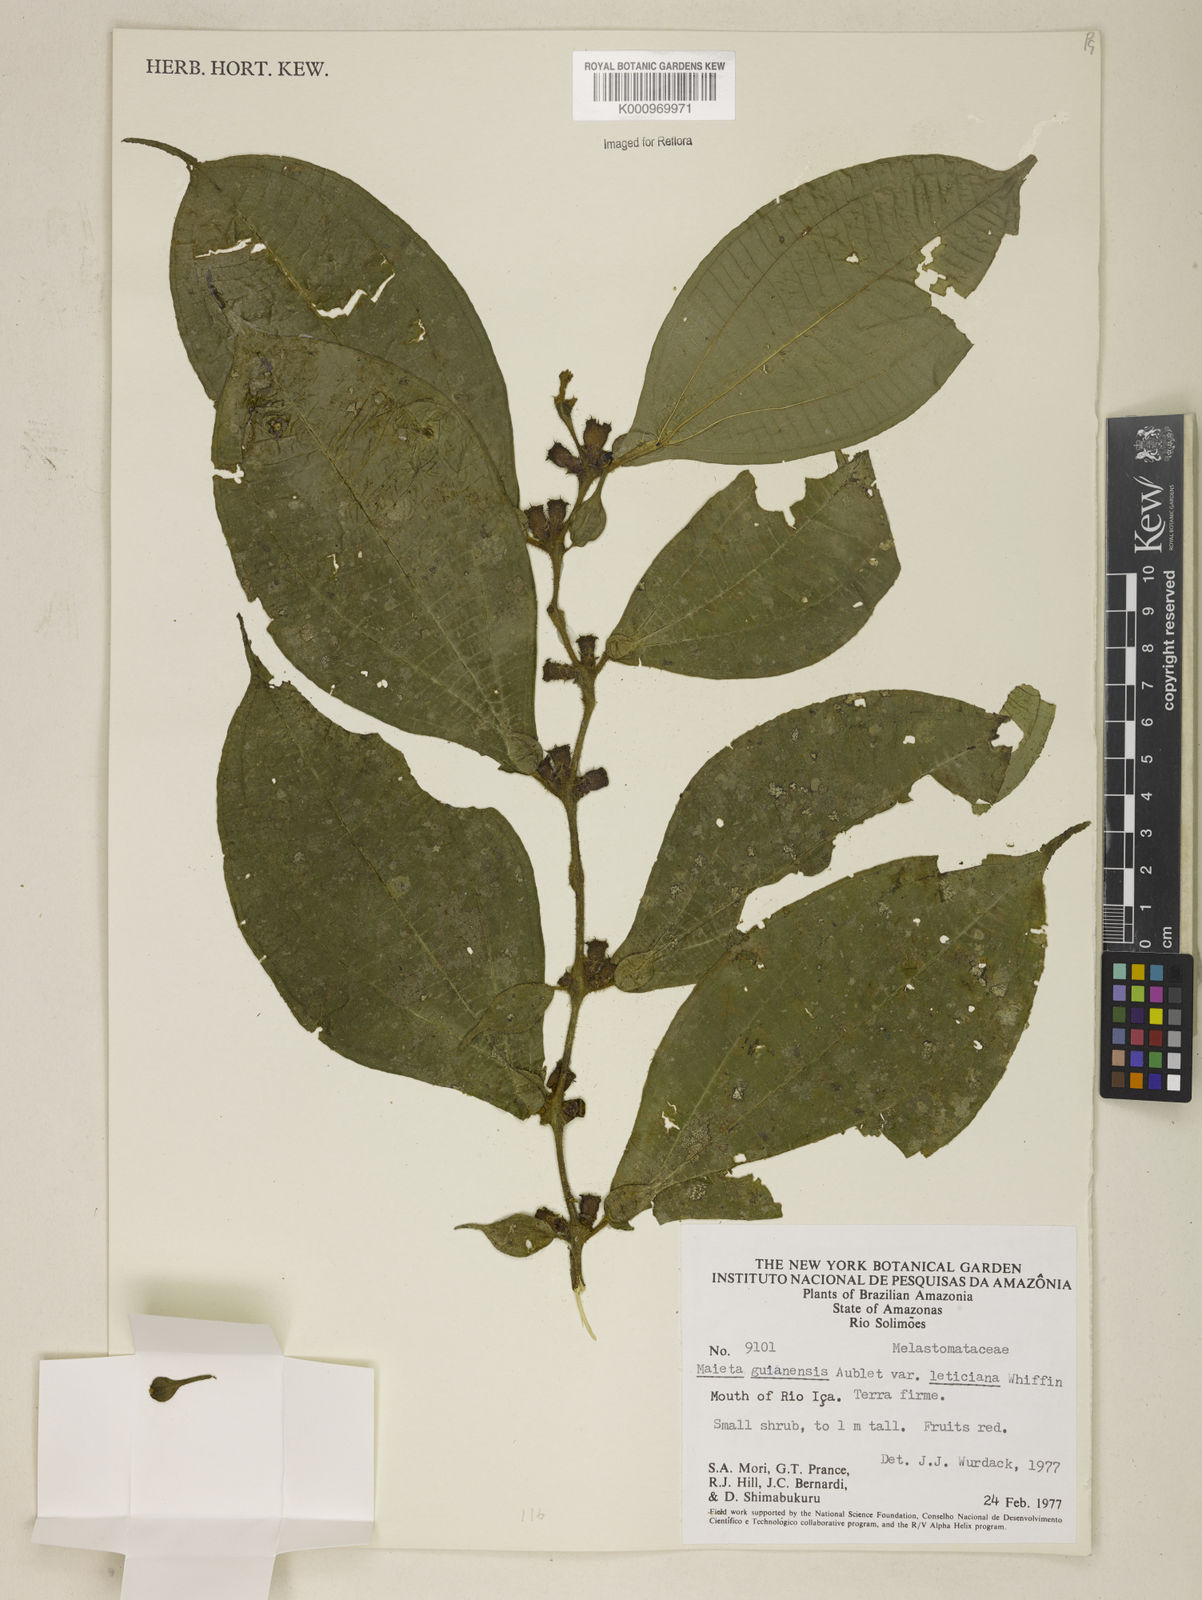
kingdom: Plantae
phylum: Tracheophyta
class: Magnoliopsida
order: Myrtales
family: Melastomataceae
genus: Miconia
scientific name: Miconia mayeta
